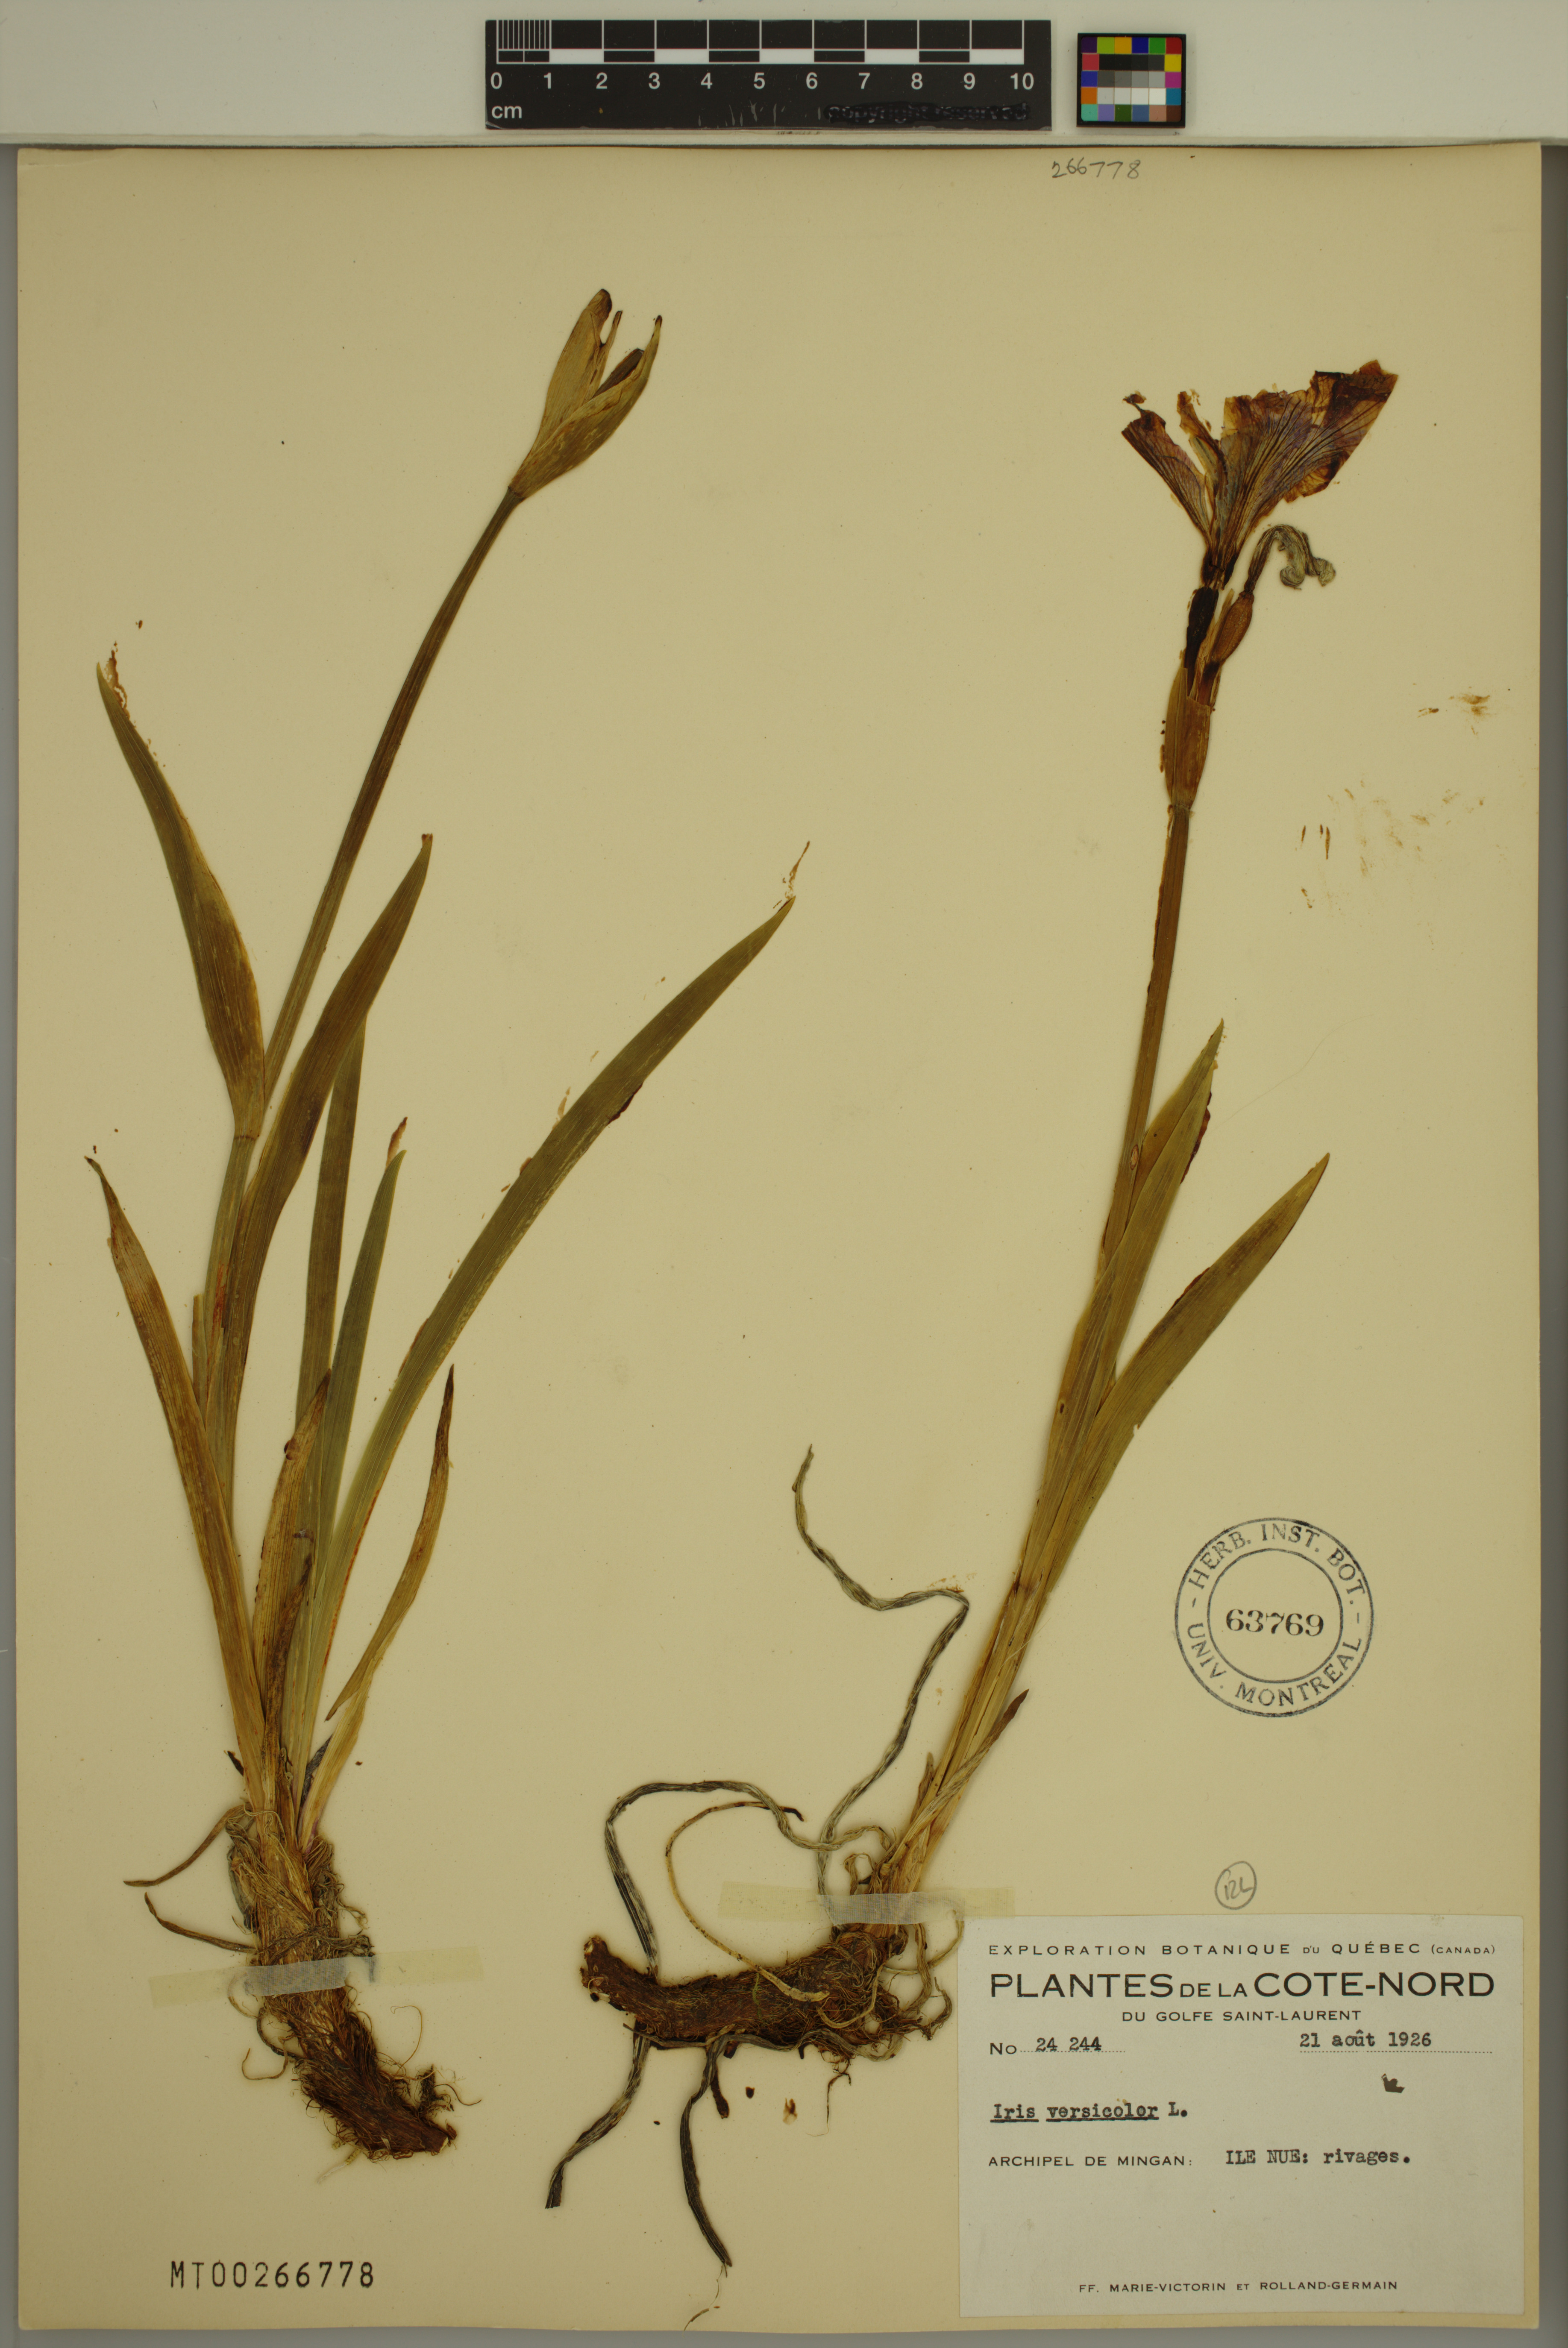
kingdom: Plantae
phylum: Tracheophyta
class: Liliopsida
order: Asparagales
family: Iridaceae
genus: Iris
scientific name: Iris versicolor
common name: Purple iris
